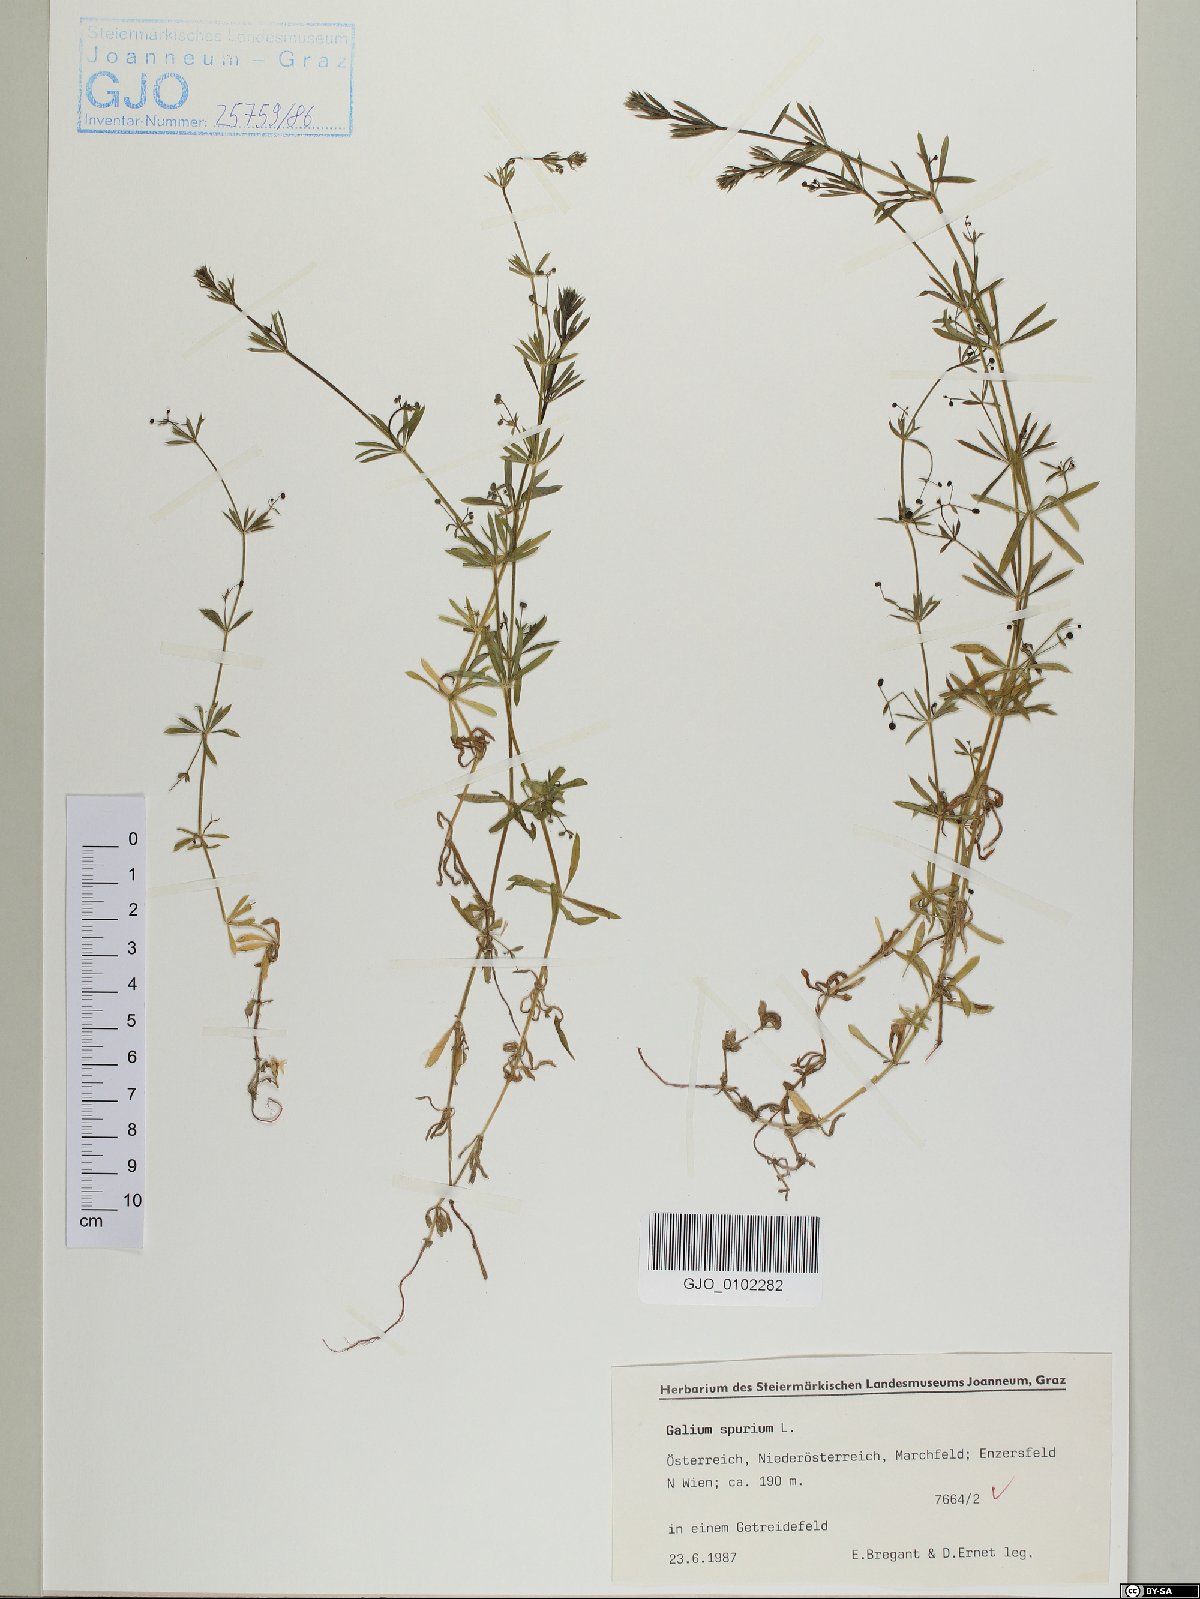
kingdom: Plantae
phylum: Tracheophyta
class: Magnoliopsida
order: Gentianales
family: Rubiaceae
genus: Galium
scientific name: Galium spurium
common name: False cleavers
